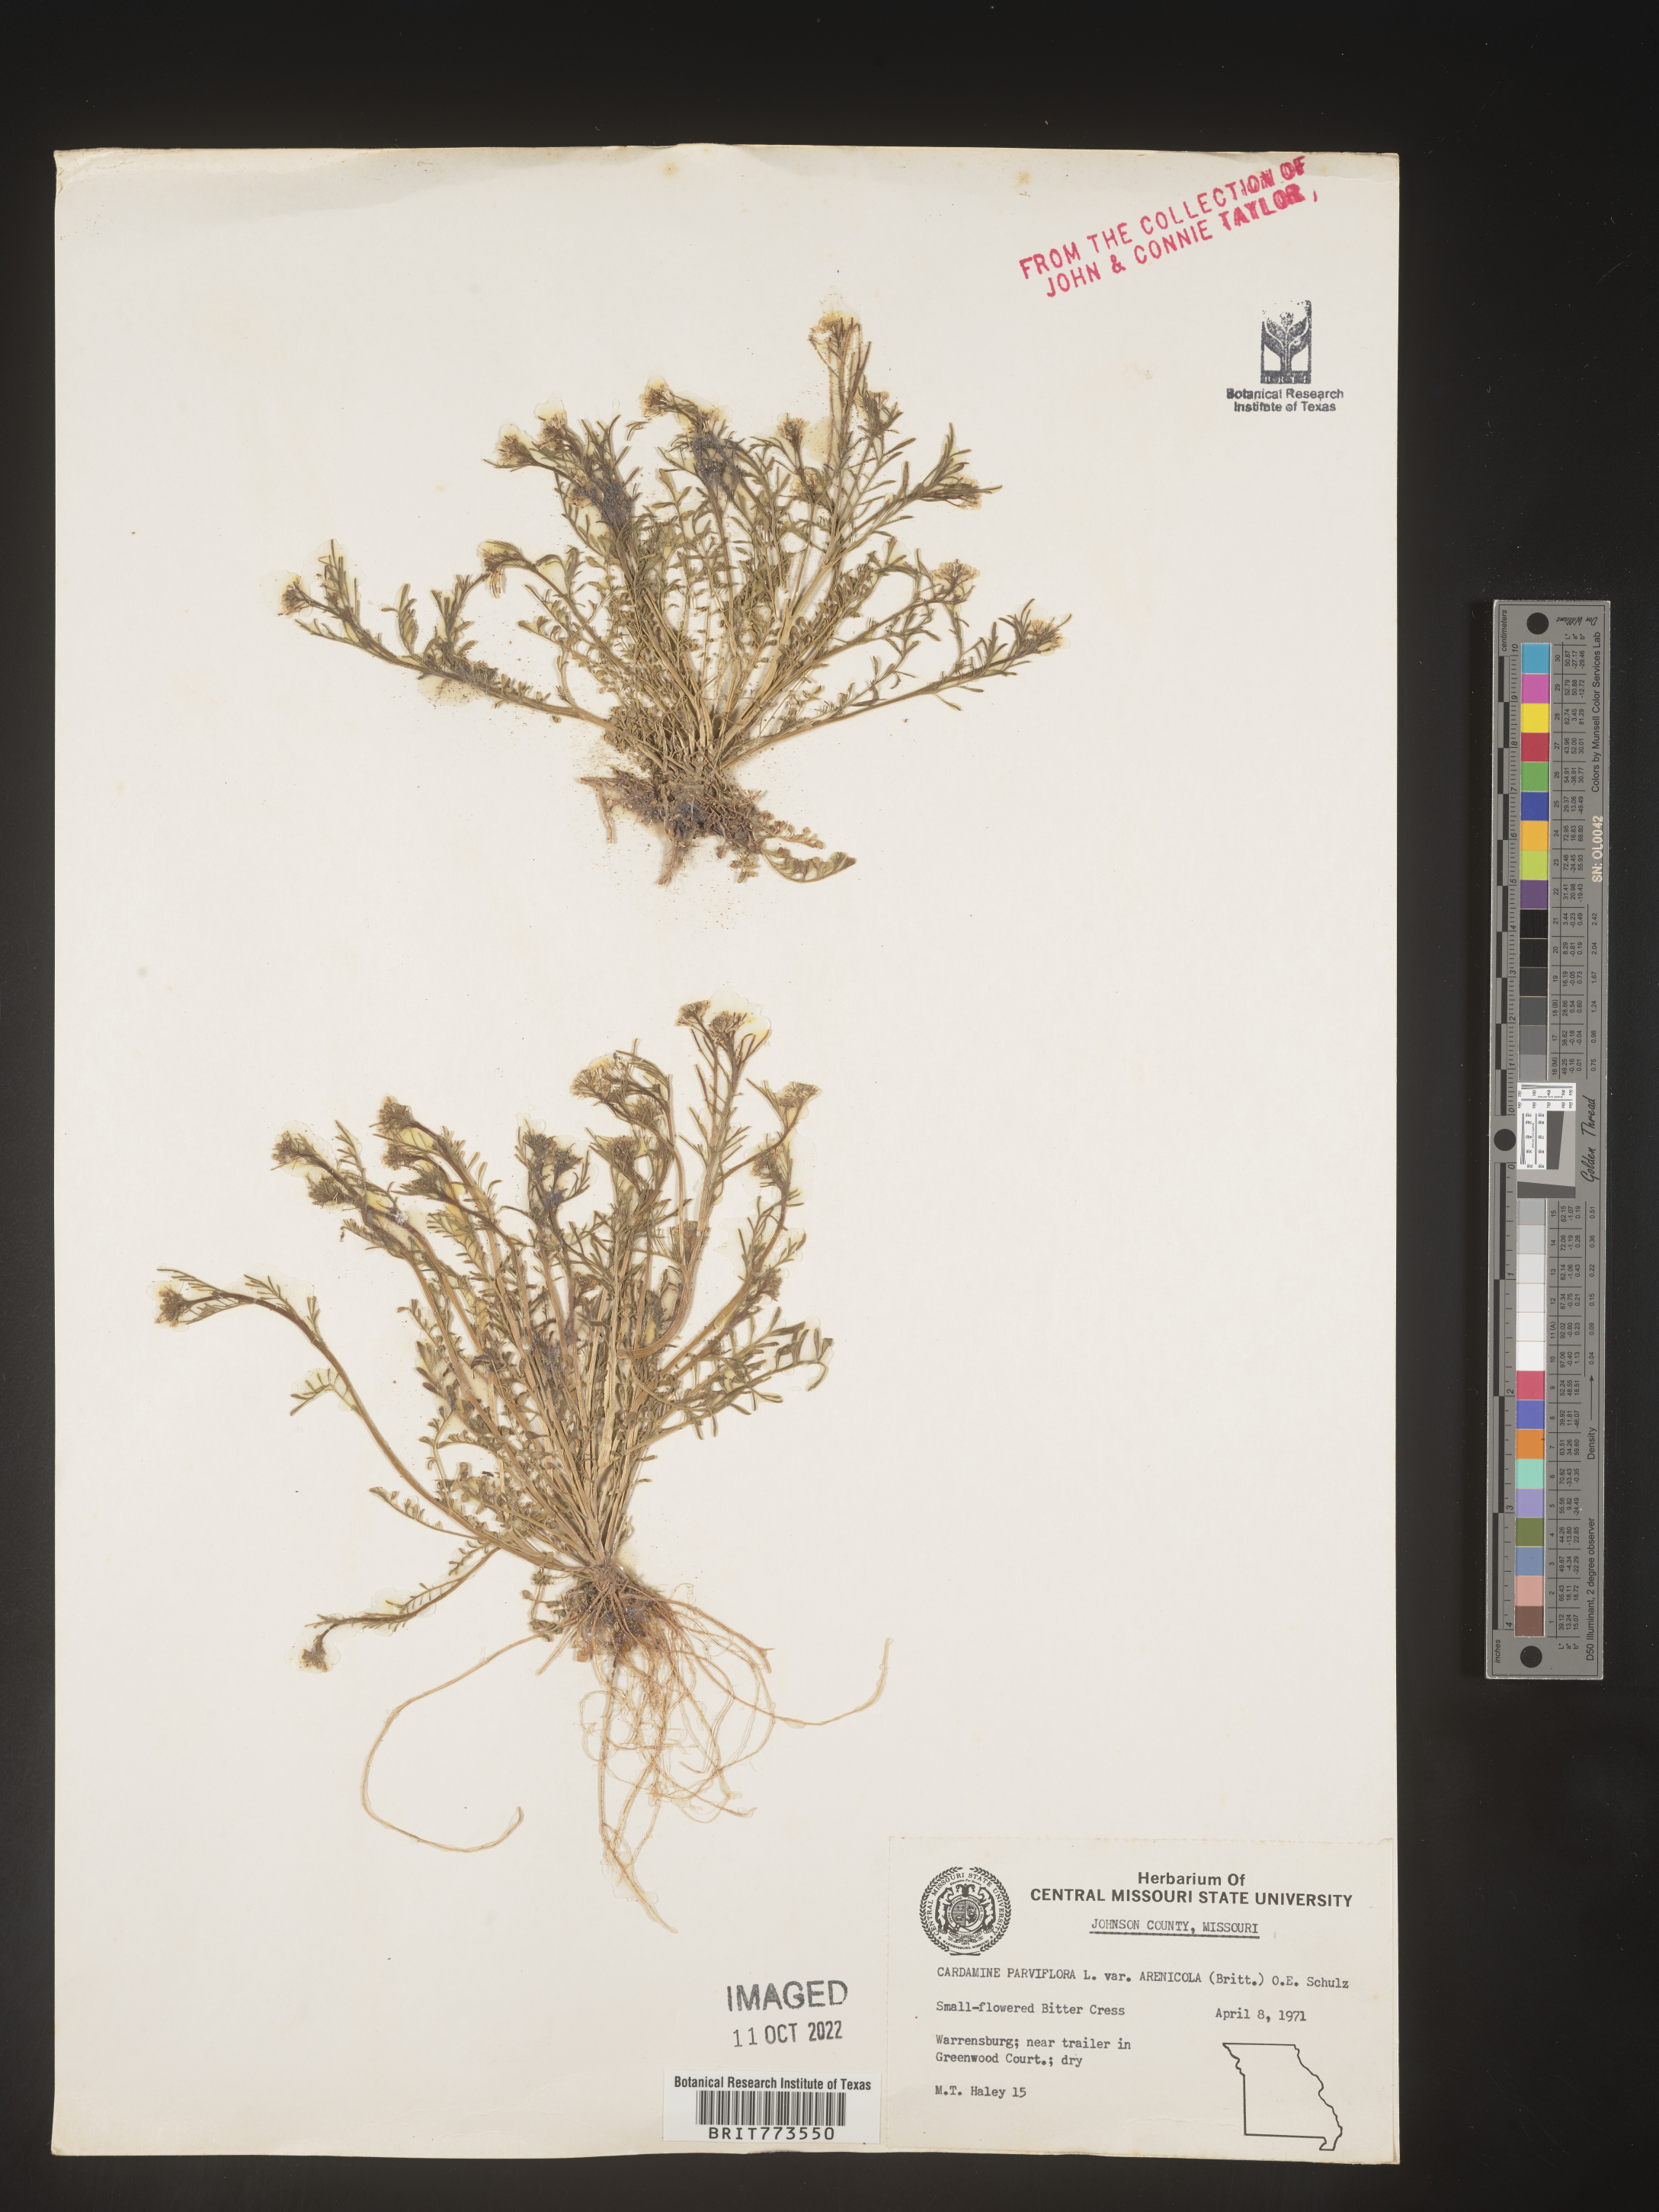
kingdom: Plantae
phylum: Tracheophyta
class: Magnoliopsida
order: Brassicales
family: Brassicaceae
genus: Cardamine
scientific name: Cardamine parviflora
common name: Sand bittercress
